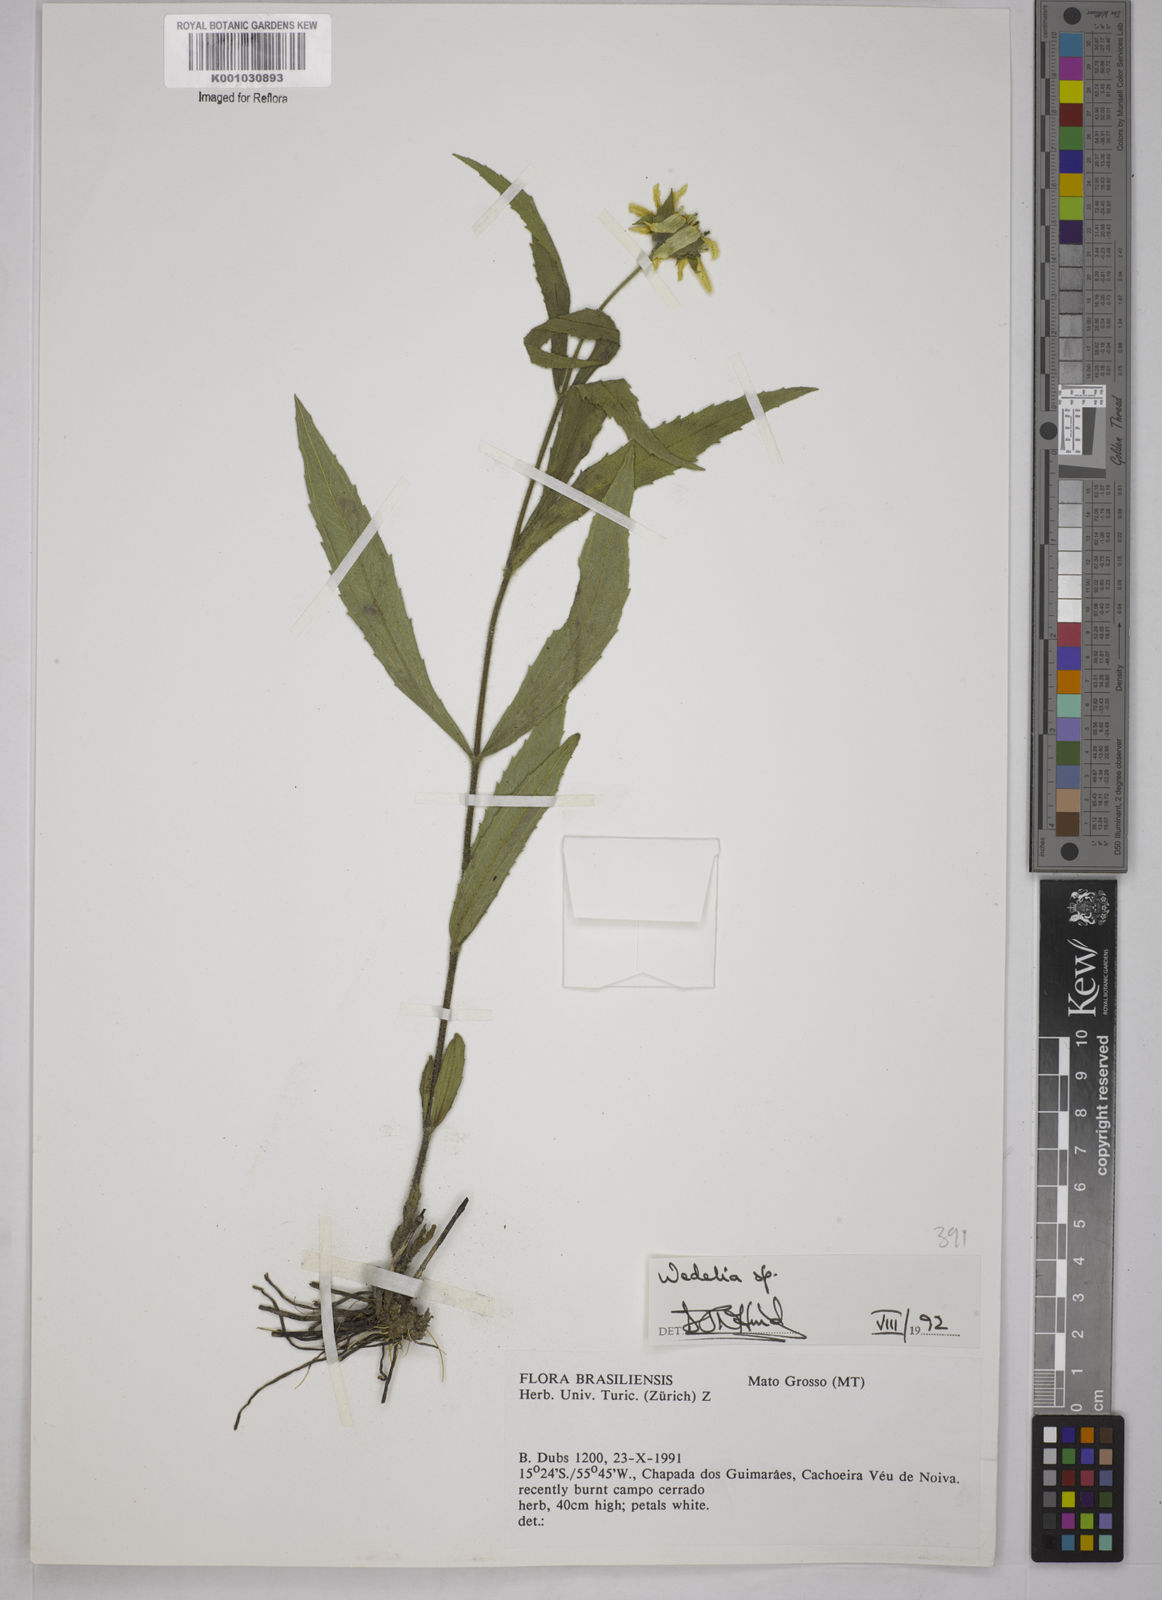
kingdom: Plantae
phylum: Tracheophyta
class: Magnoliopsida
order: Asterales
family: Asteraceae
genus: Wedelia
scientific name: Wedelia
